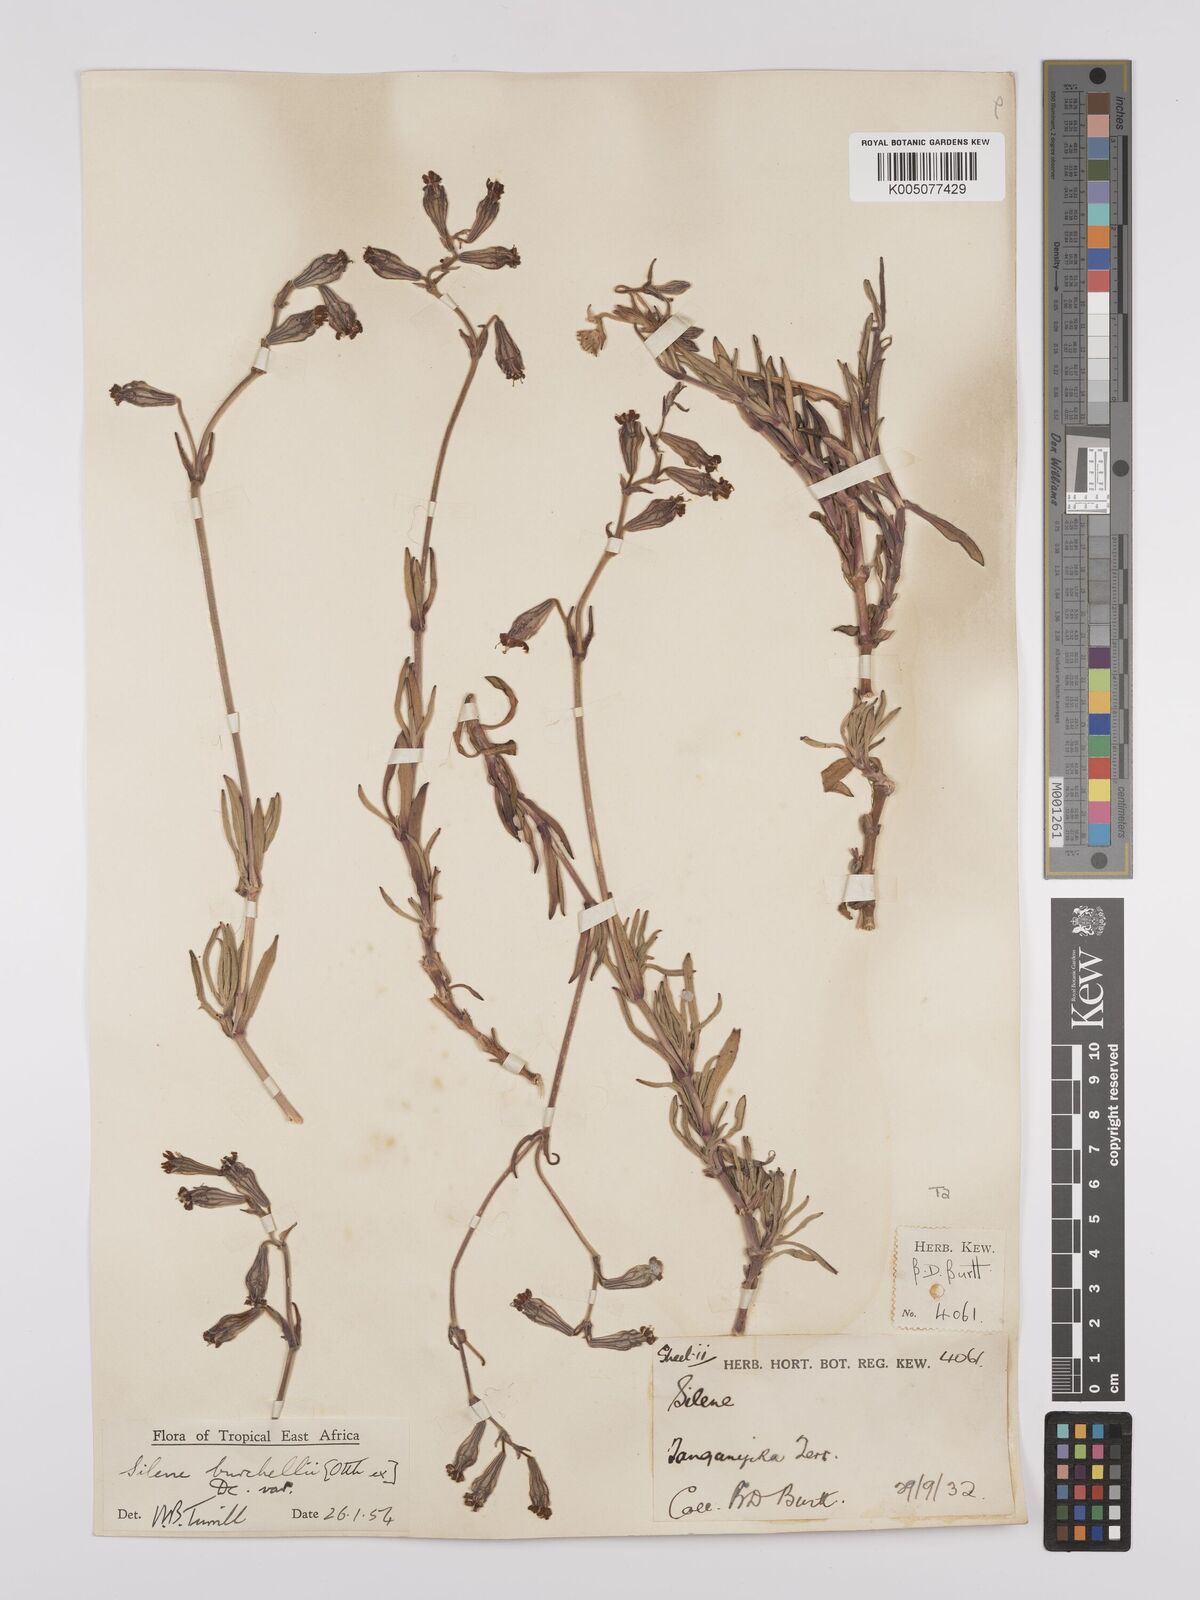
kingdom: Plantae
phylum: Tracheophyta
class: Magnoliopsida
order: Caryophyllales
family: Caryophyllaceae
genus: Silene
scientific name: Silene burchellii
